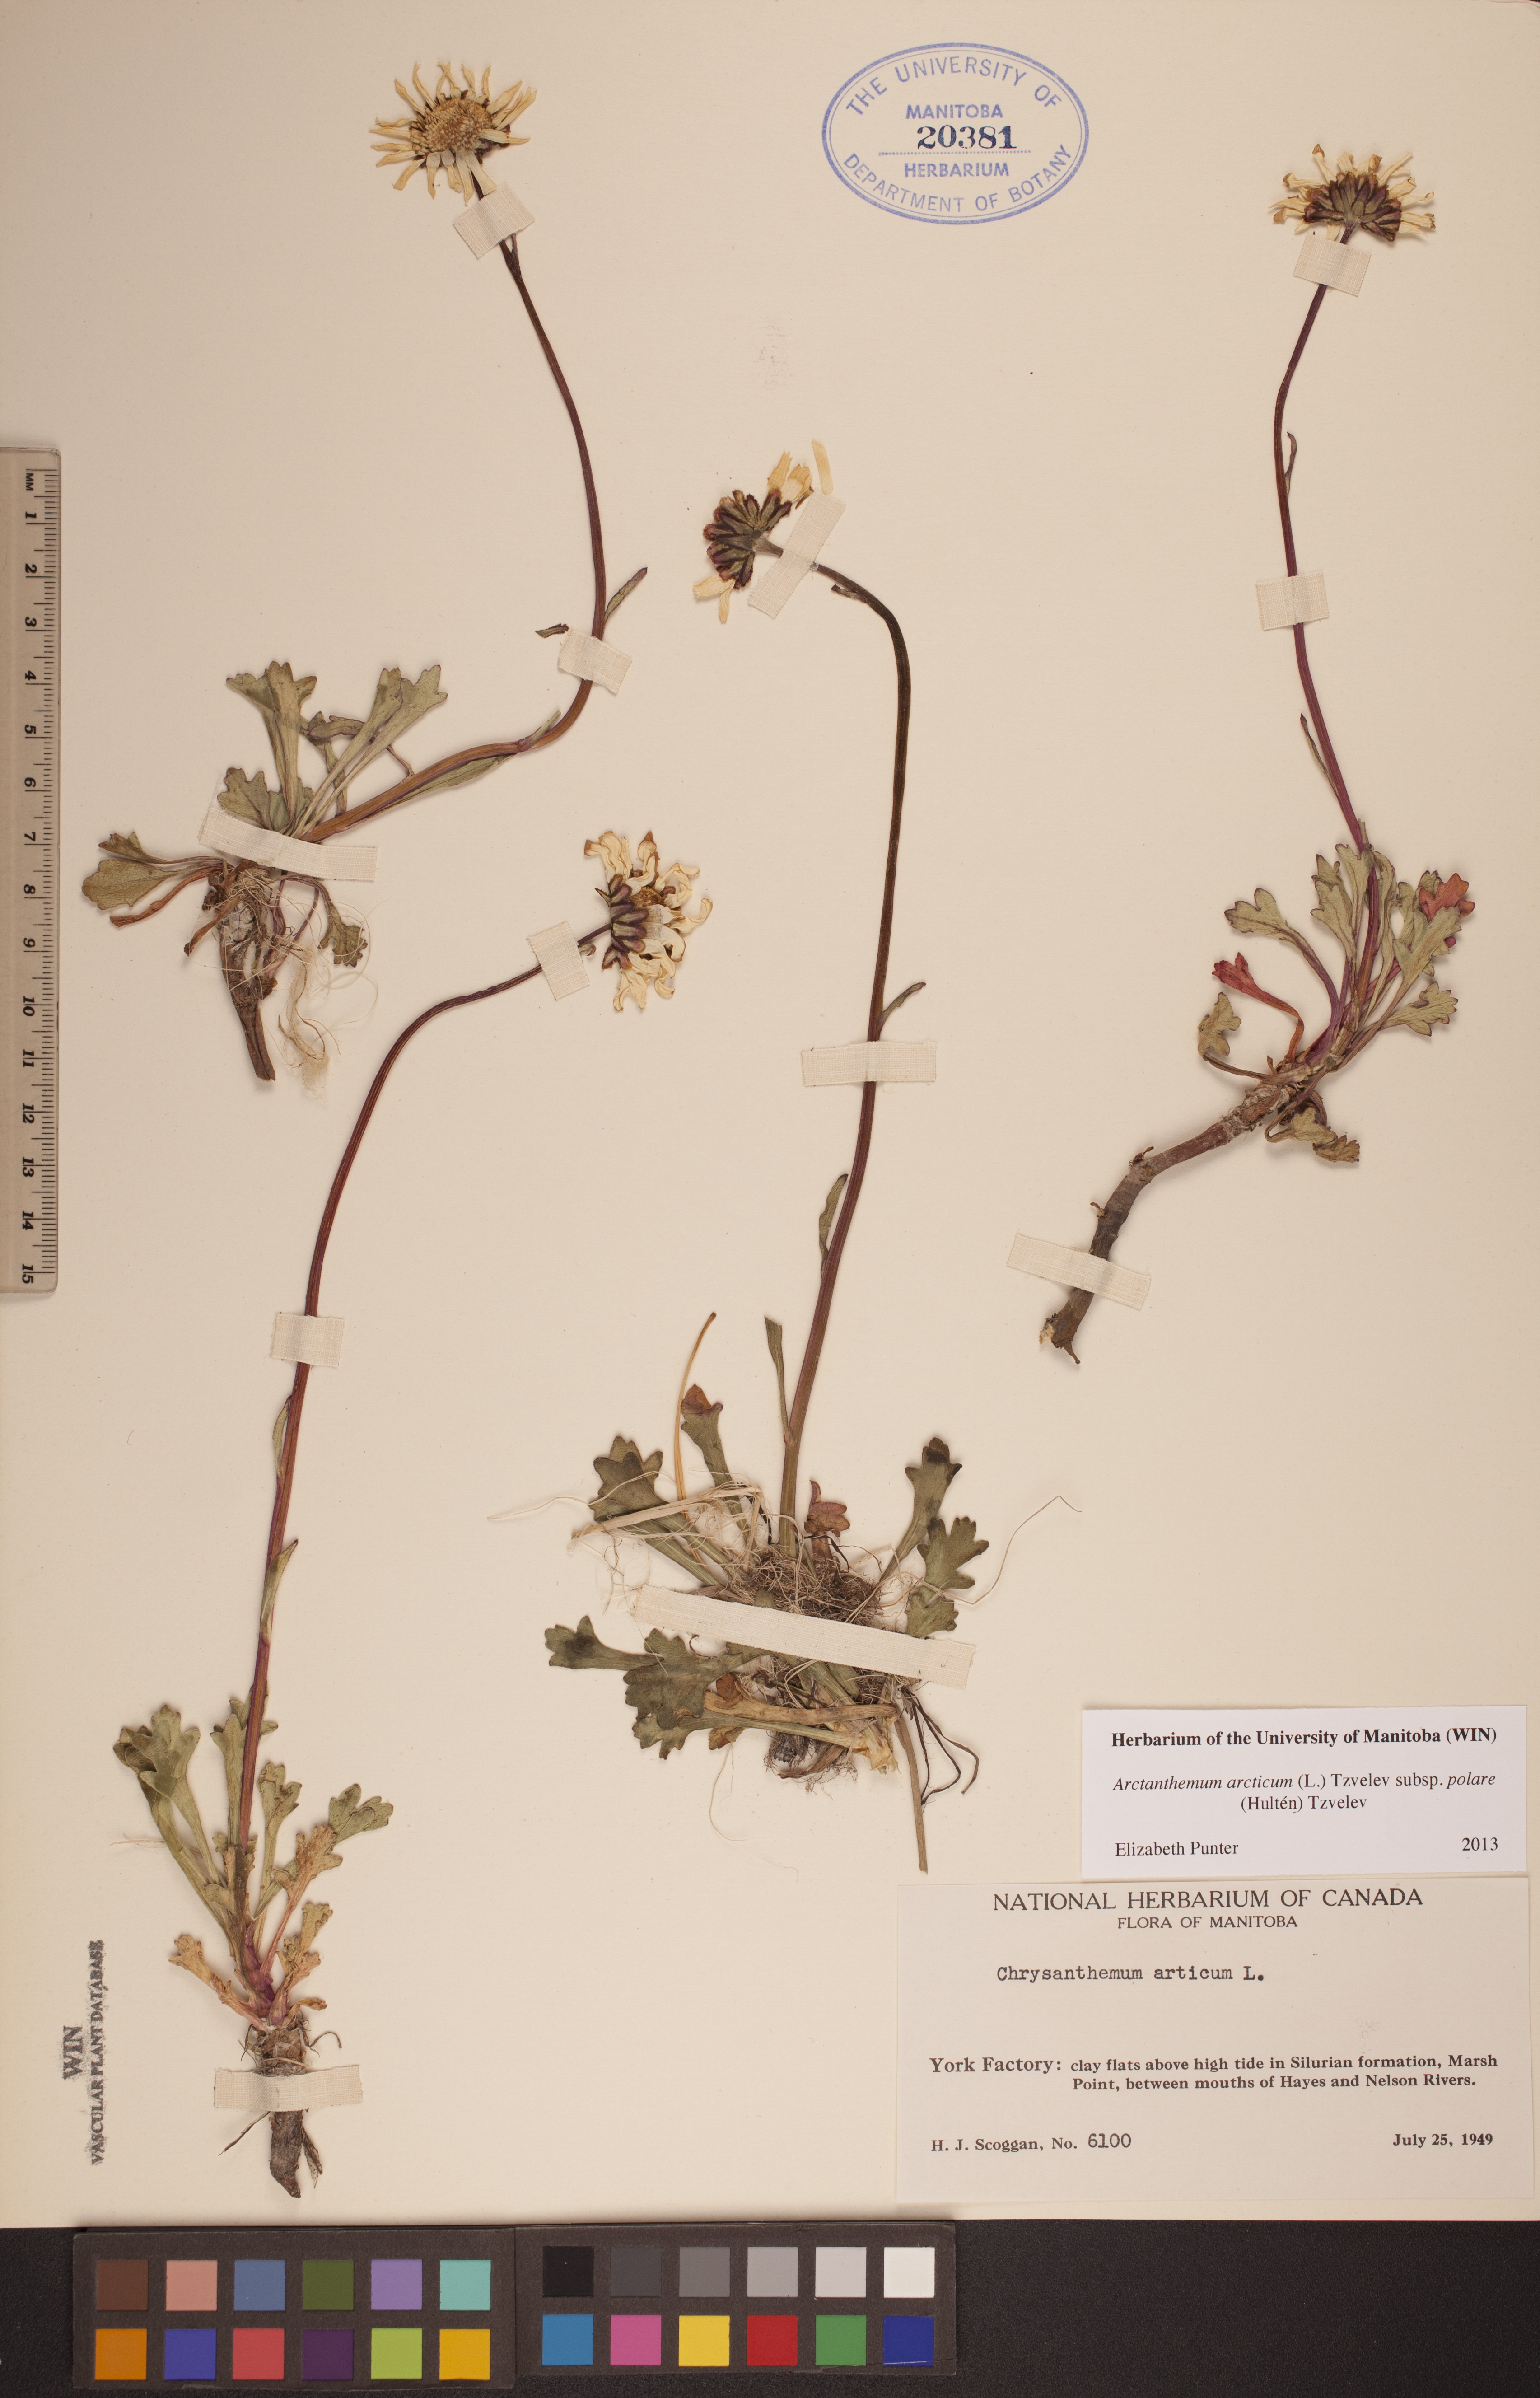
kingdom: Plantae
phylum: Tracheophyta
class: Magnoliopsida
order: Asterales
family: Asteraceae
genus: Arctanthemum
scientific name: Arctanthemum arcticum
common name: Arctic daisy
